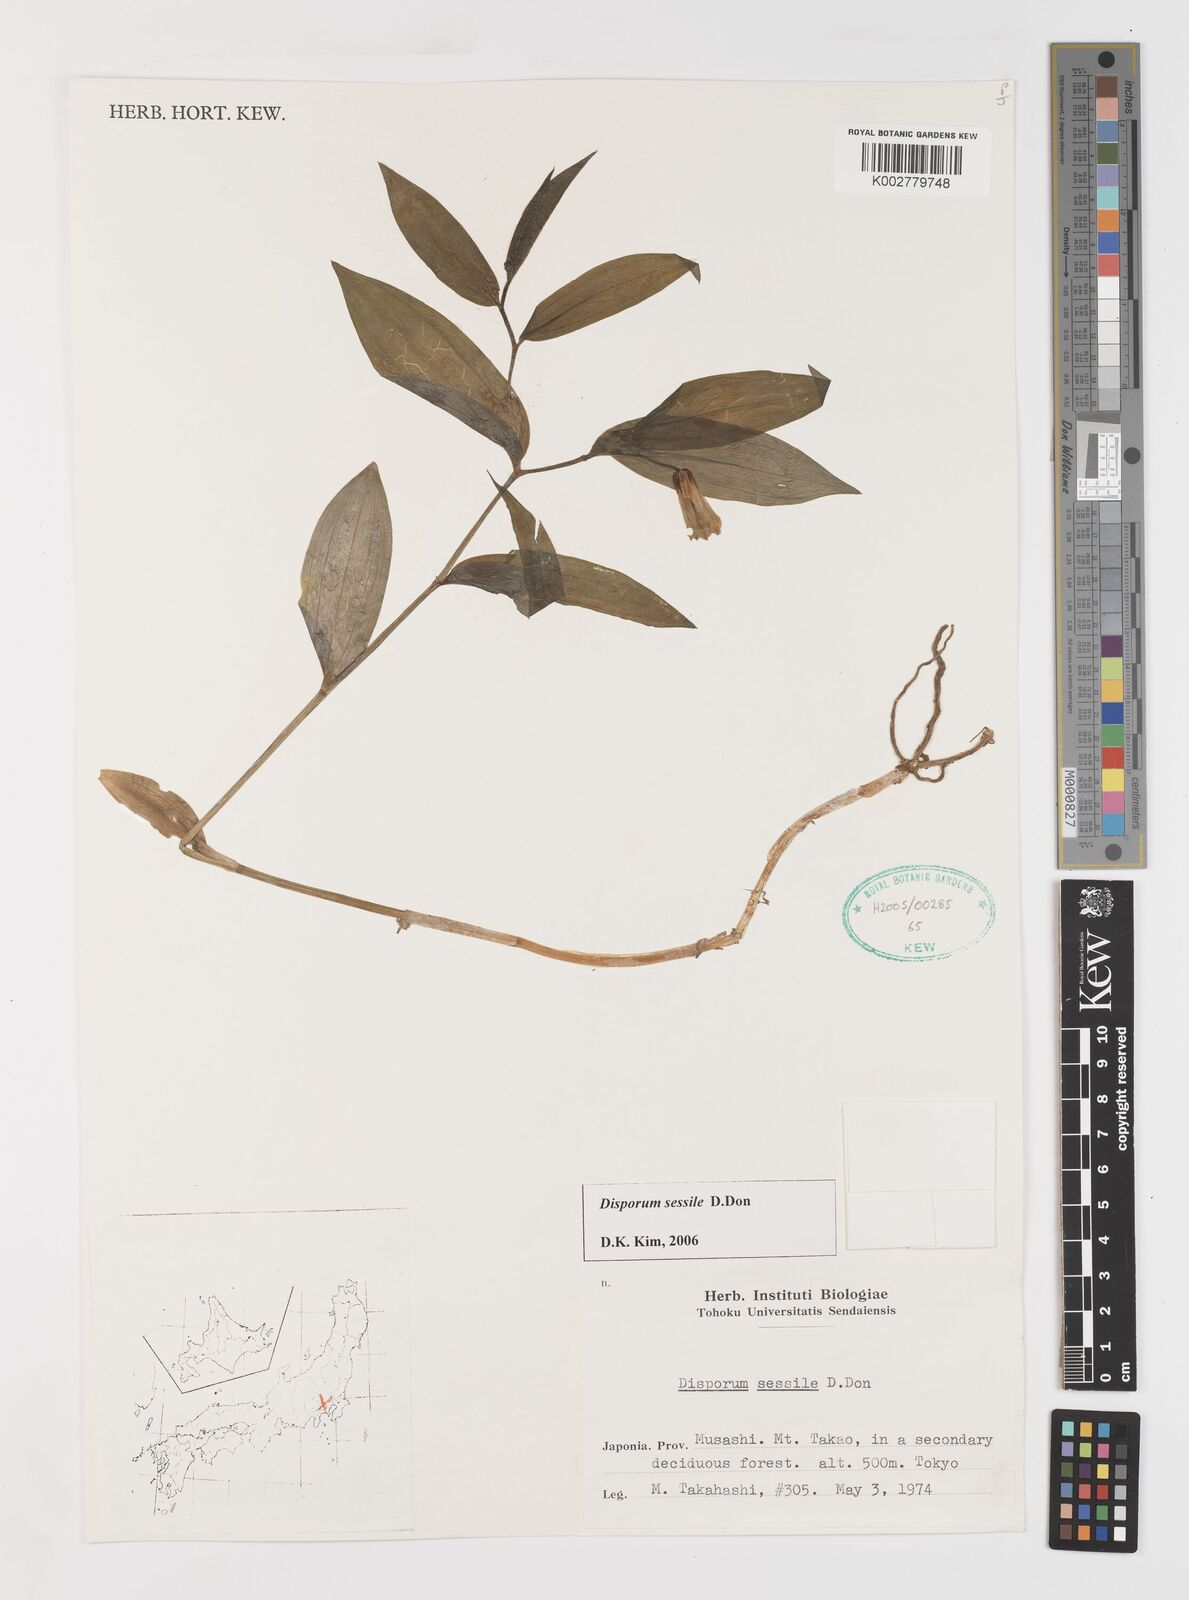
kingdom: Plantae
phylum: Tracheophyta
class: Liliopsida
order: Liliales
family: Colchicaceae
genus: Disporum
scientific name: Disporum sessile
